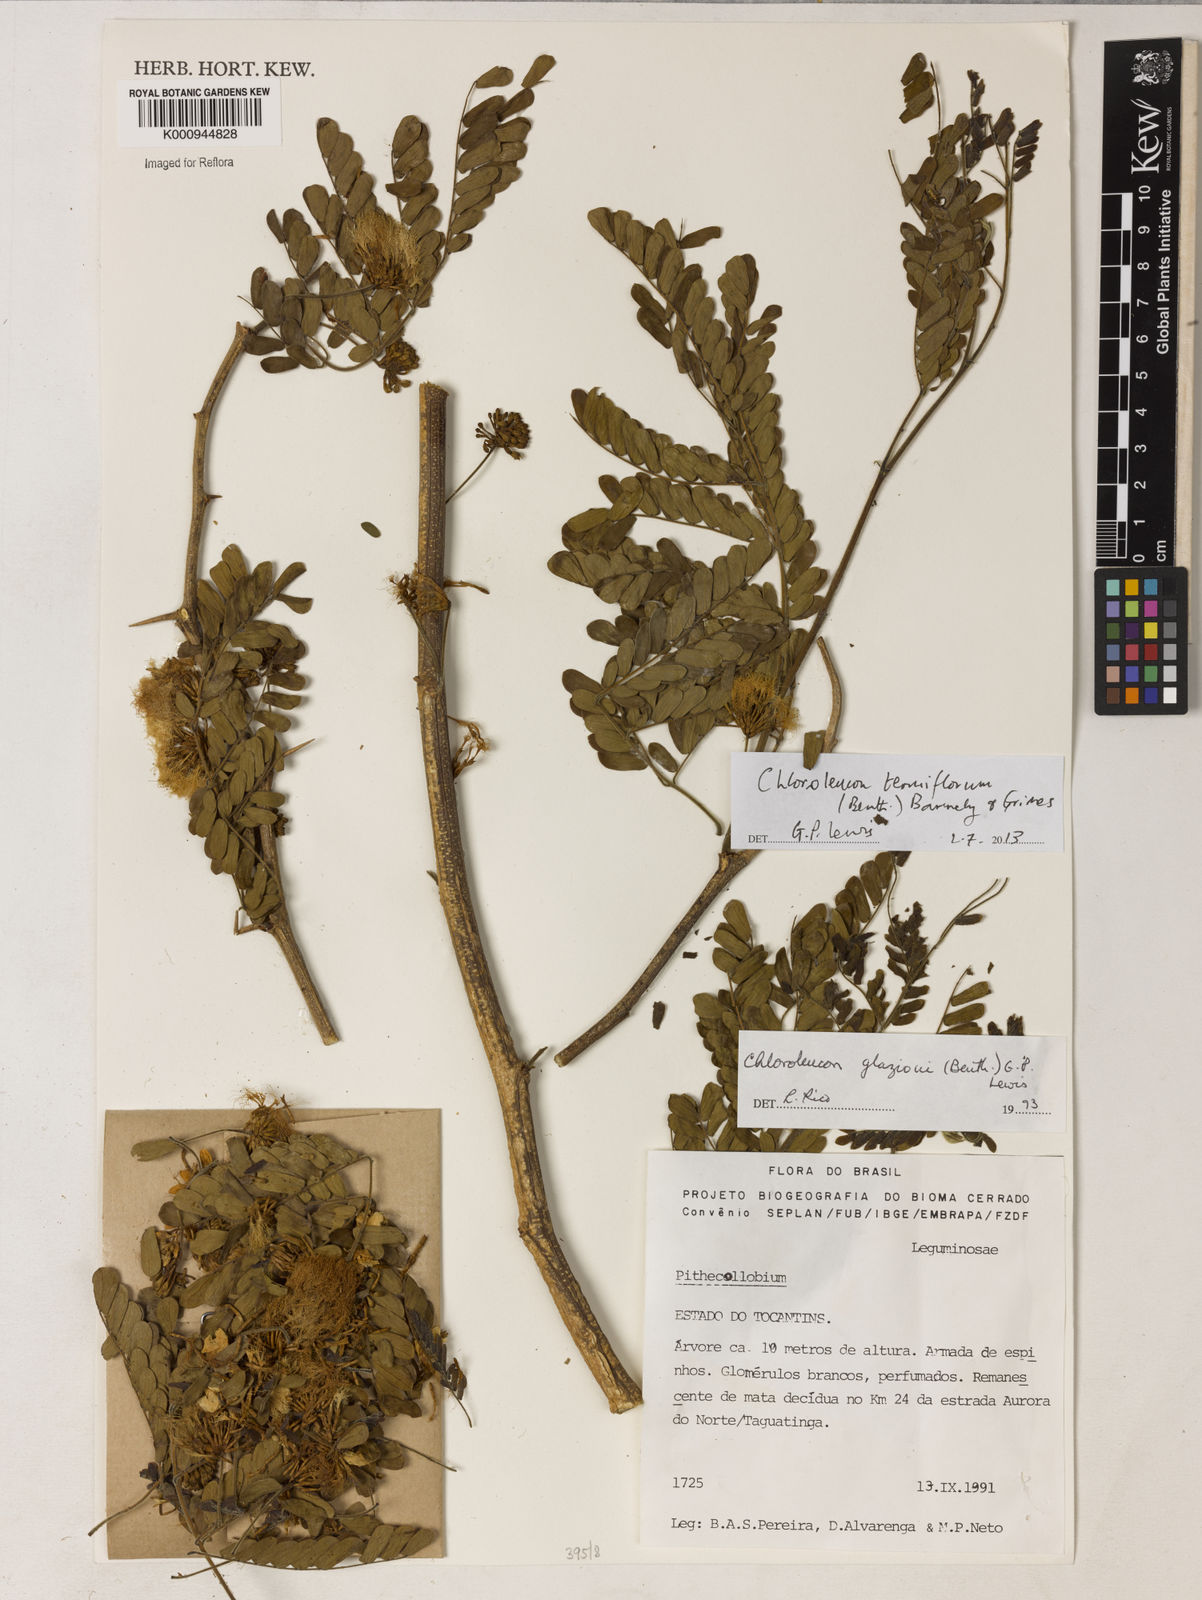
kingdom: Plantae
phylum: Tracheophyta
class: Magnoliopsida
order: Fabales
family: Fabaceae
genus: Chloroleucon
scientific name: Chloroleucon tenuiflorum
